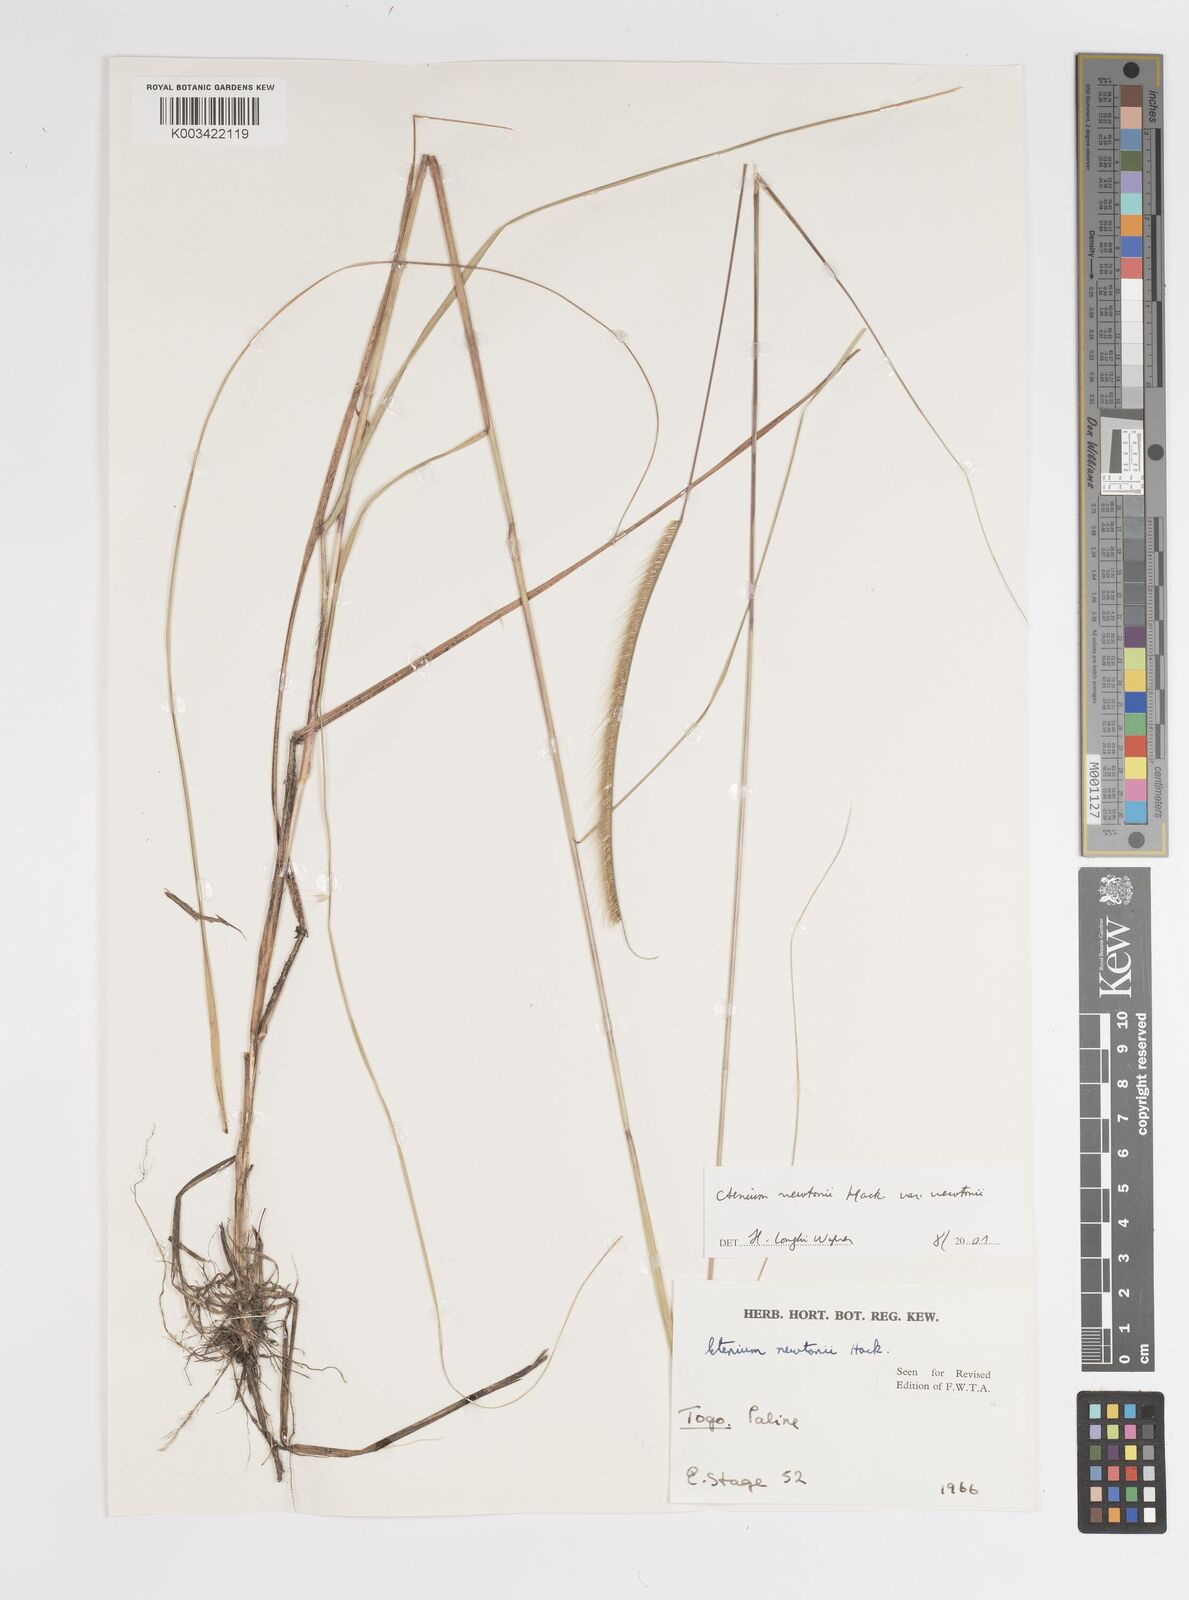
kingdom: Plantae
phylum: Tracheophyta
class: Liliopsida
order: Poales
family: Poaceae
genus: Ctenium
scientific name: Ctenium newtonii
